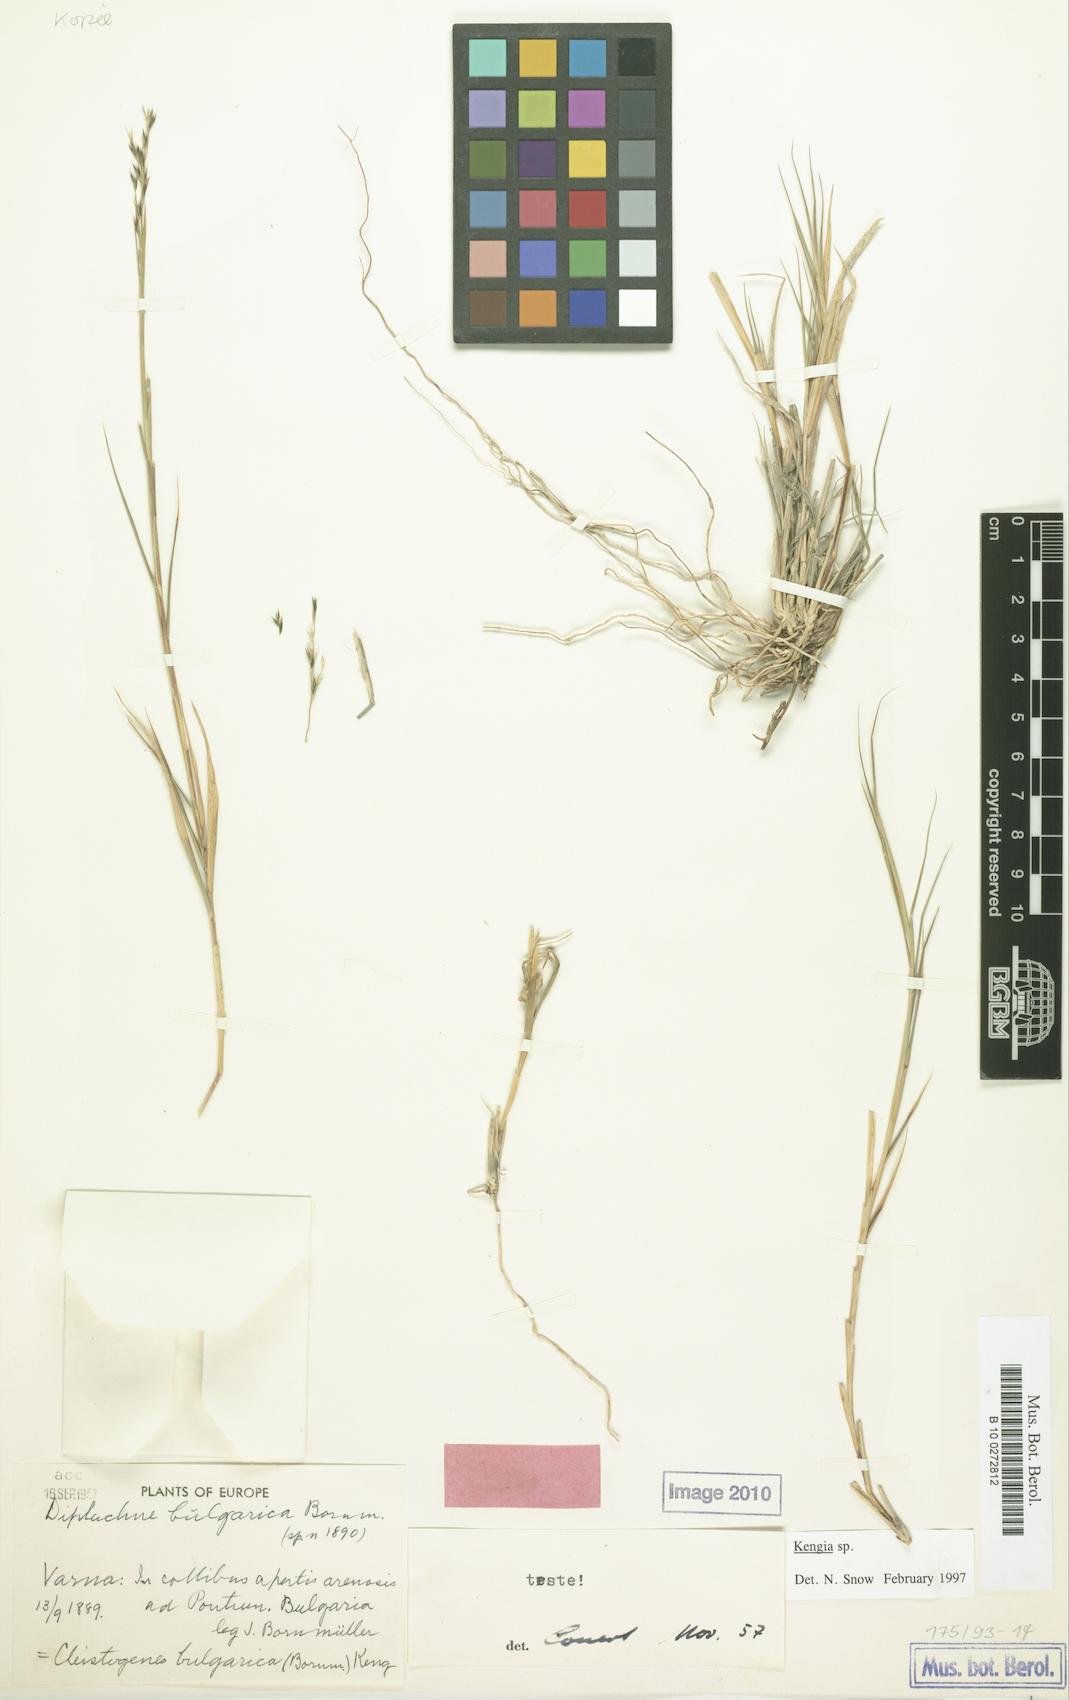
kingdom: Plantae
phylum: Tracheophyta
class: Liliopsida
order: Poales
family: Poaceae
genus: Cleistogenes
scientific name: Cleistogenes serotina
